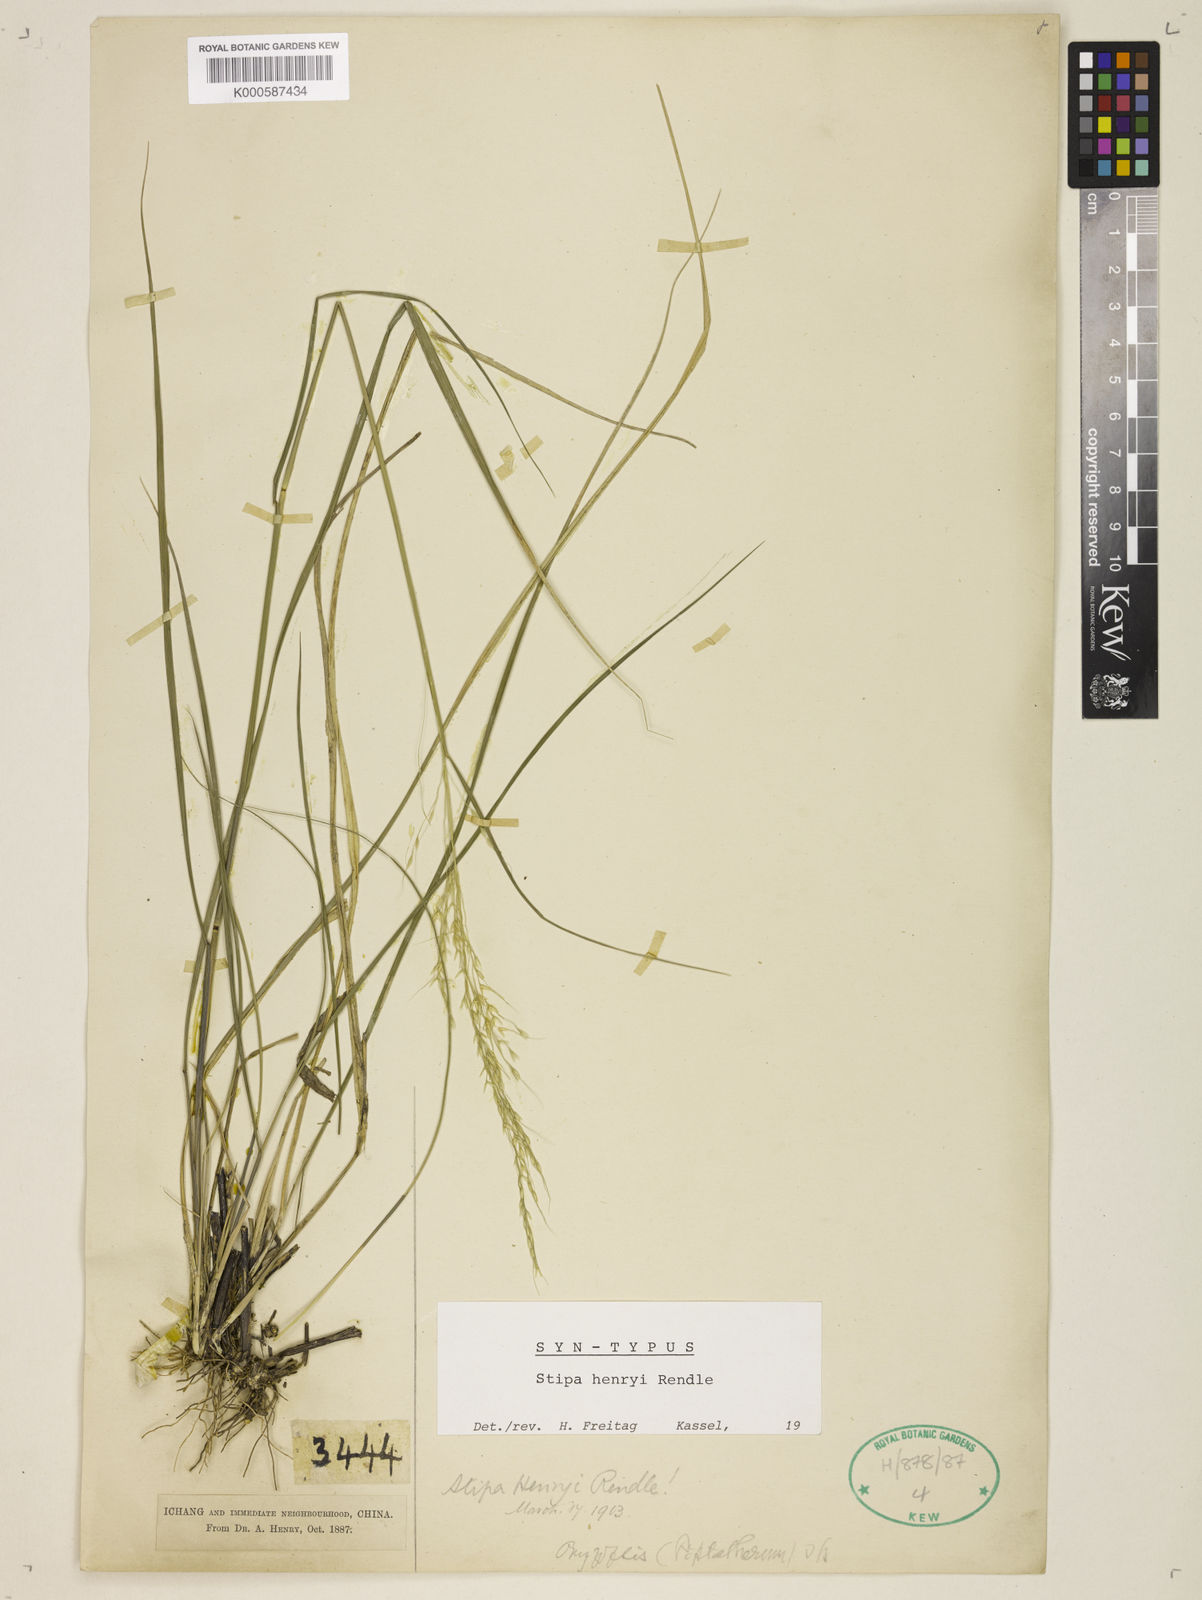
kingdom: Plantae
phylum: Tracheophyta
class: Liliopsida
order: Poales
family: Poaceae
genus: Stipa
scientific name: Stipa henryi
